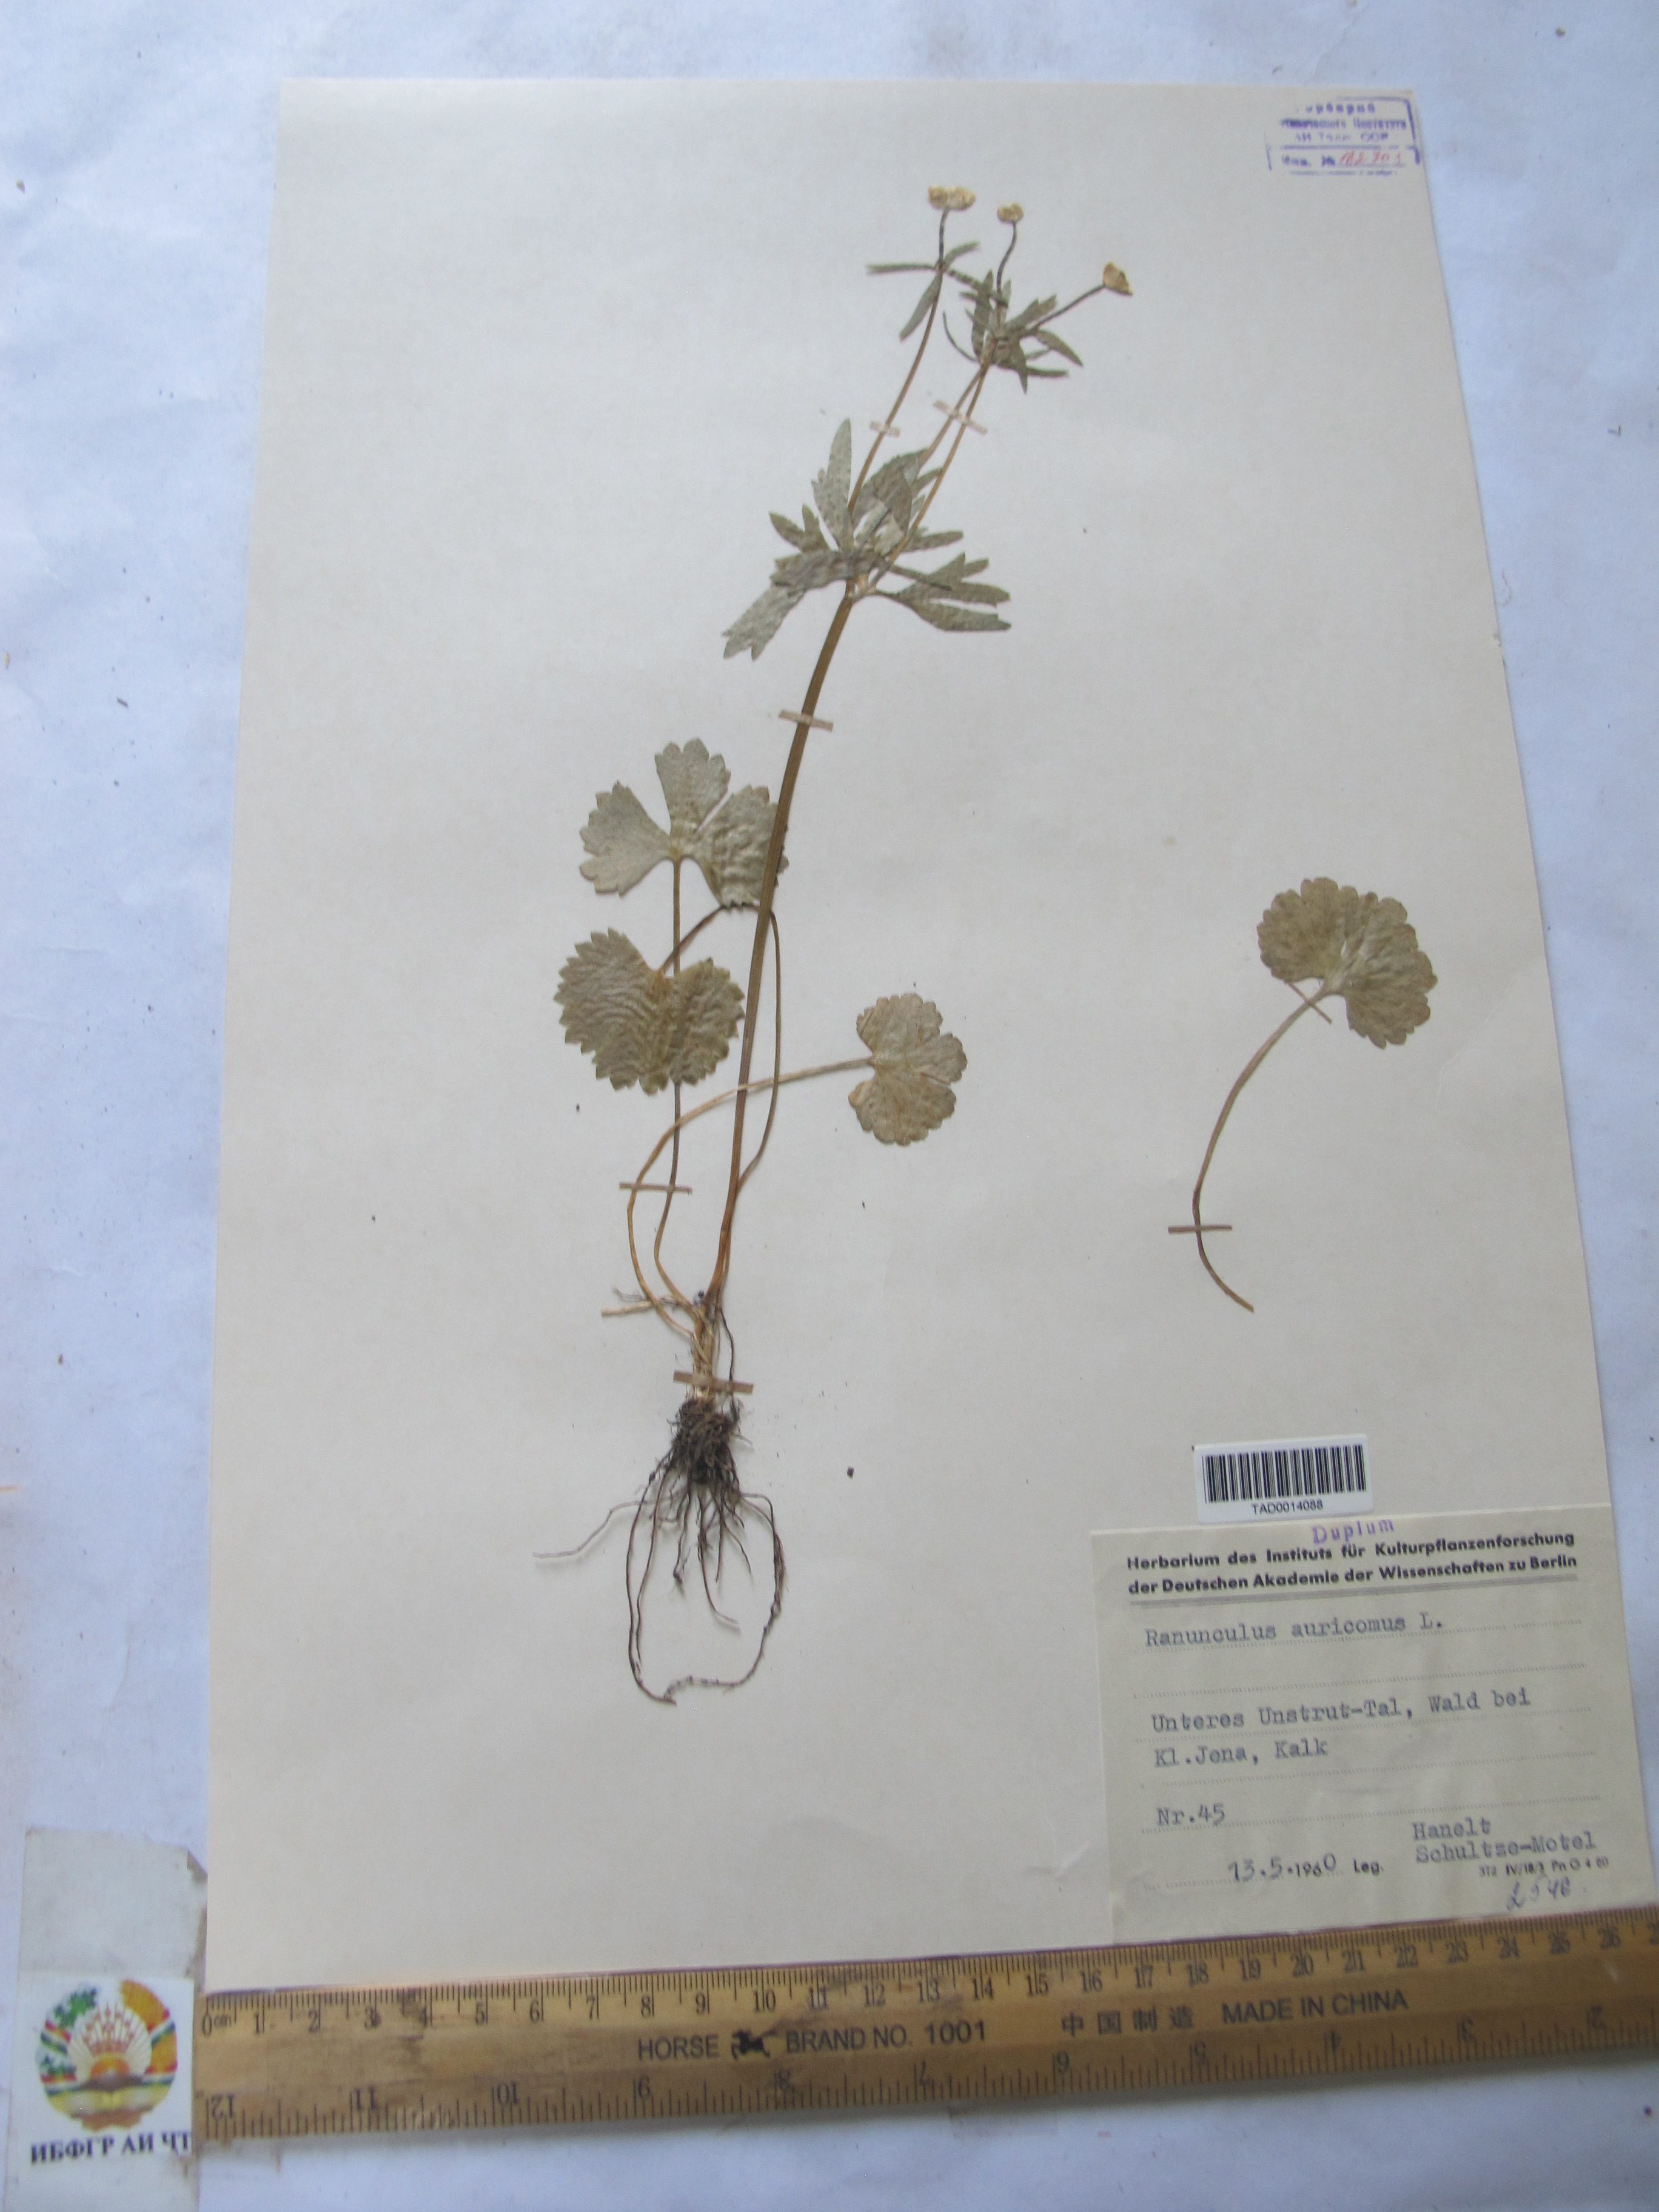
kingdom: Plantae
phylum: Tracheophyta
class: Magnoliopsida
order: Ranunculales
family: Ranunculaceae
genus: Ranunculus
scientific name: Ranunculus auricomus
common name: Goldilocks buttercup
